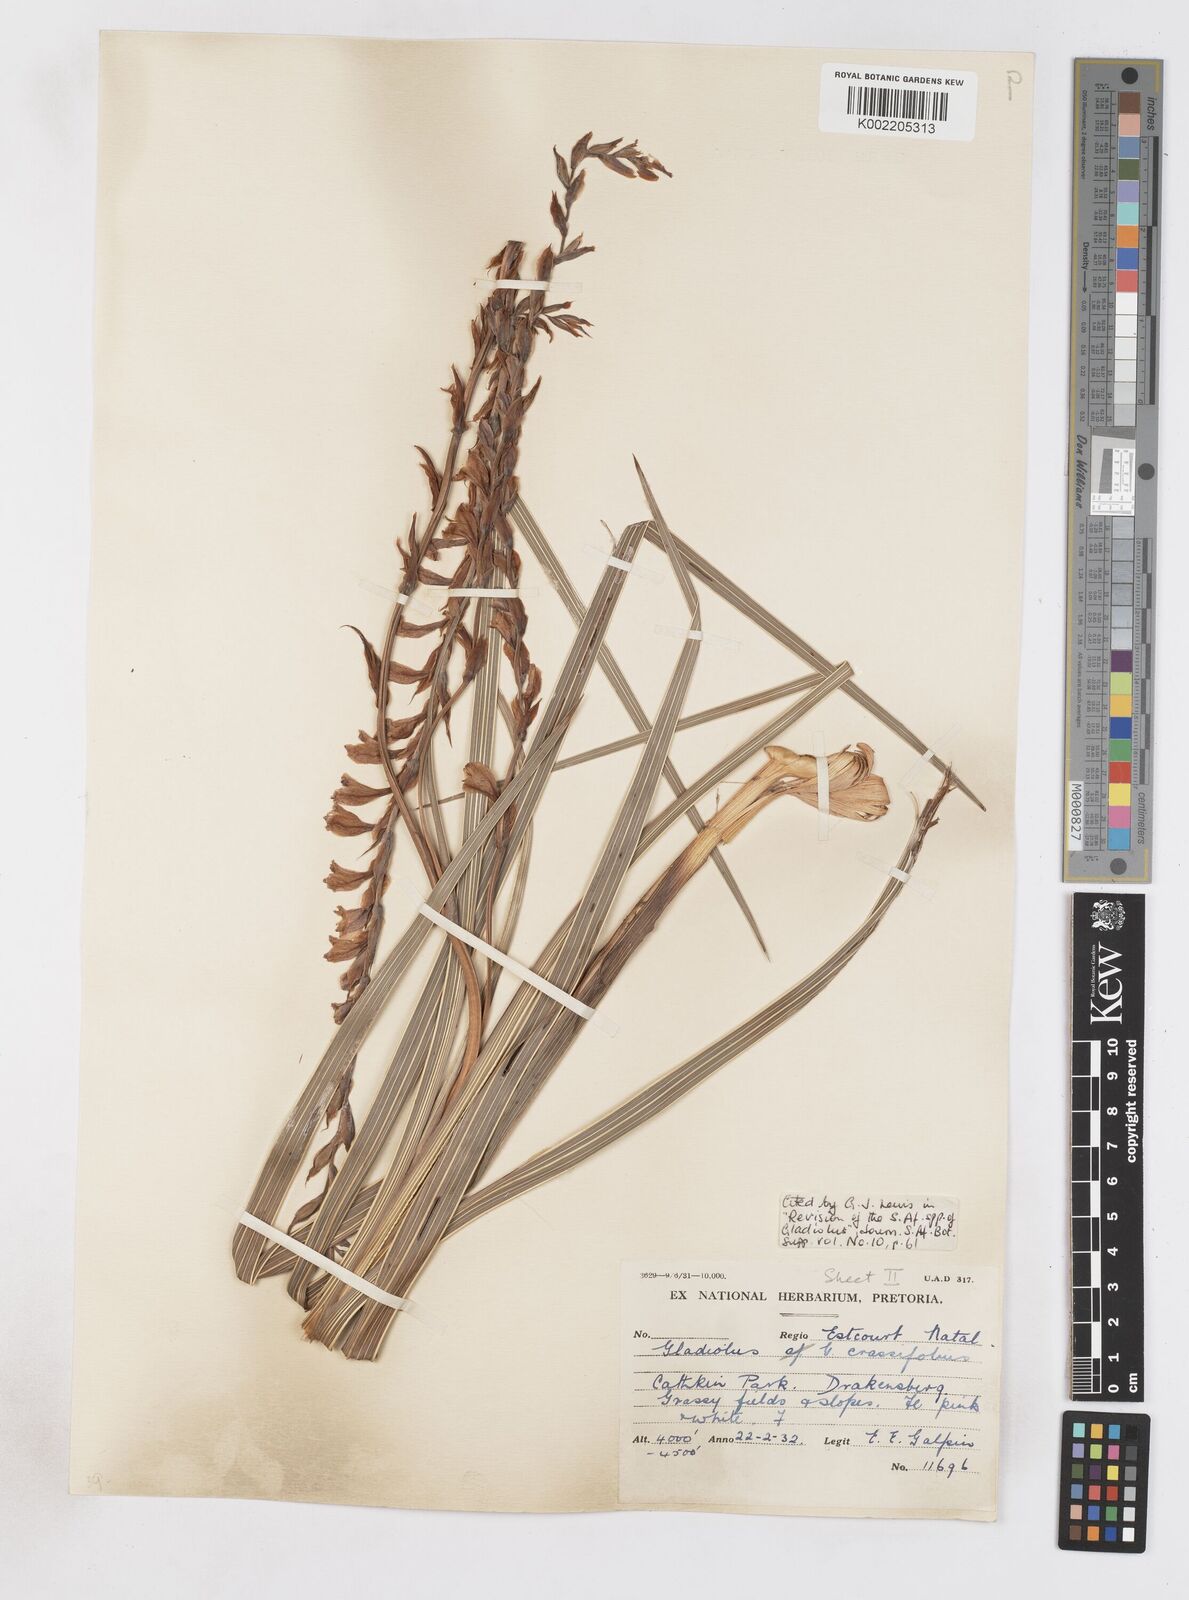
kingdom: Plantae
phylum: Tracheophyta
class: Liliopsida
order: Asparagales
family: Iridaceae
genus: Gladiolus
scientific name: Gladiolus crassifolius
